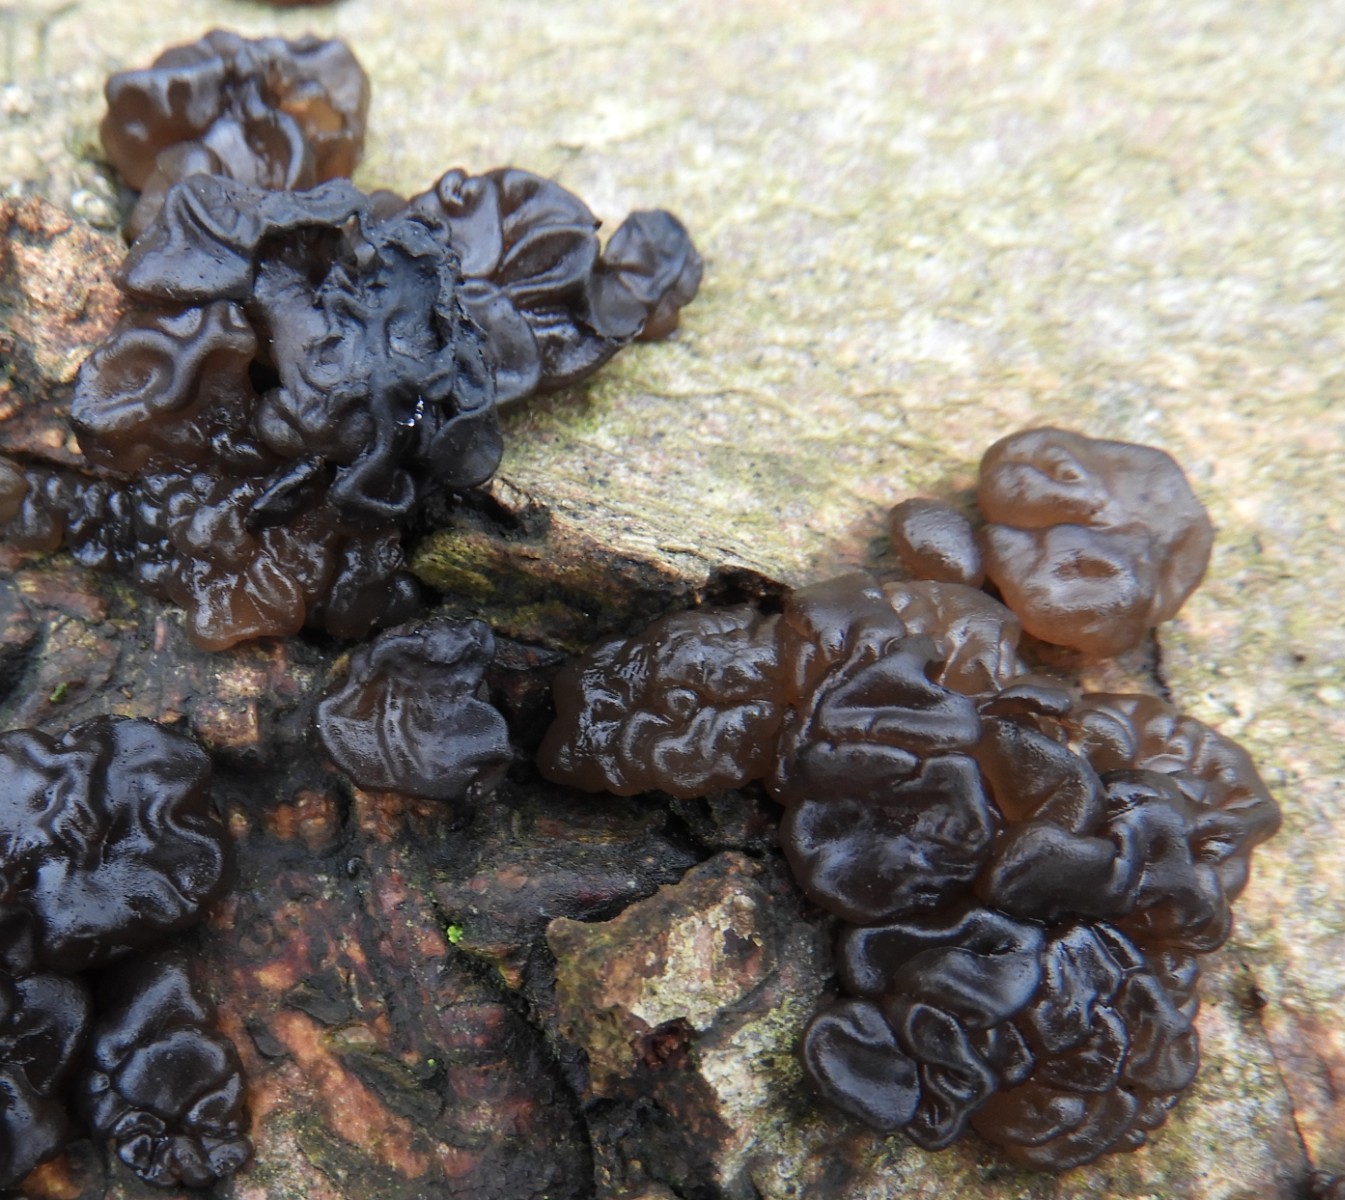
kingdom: Fungi
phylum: Basidiomycota
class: Agaricomycetes
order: Auriculariales
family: Auriculariaceae
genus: Exidia
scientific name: Exidia nigricans
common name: almindelig bævretop
